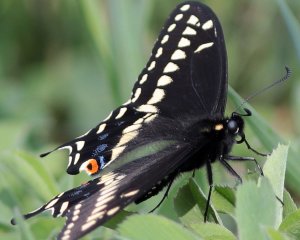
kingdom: Animalia
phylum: Arthropoda
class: Insecta
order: Lepidoptera
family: Papilionidae
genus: Papilio
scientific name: Papilio polyxenes
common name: Black Swallowtail
